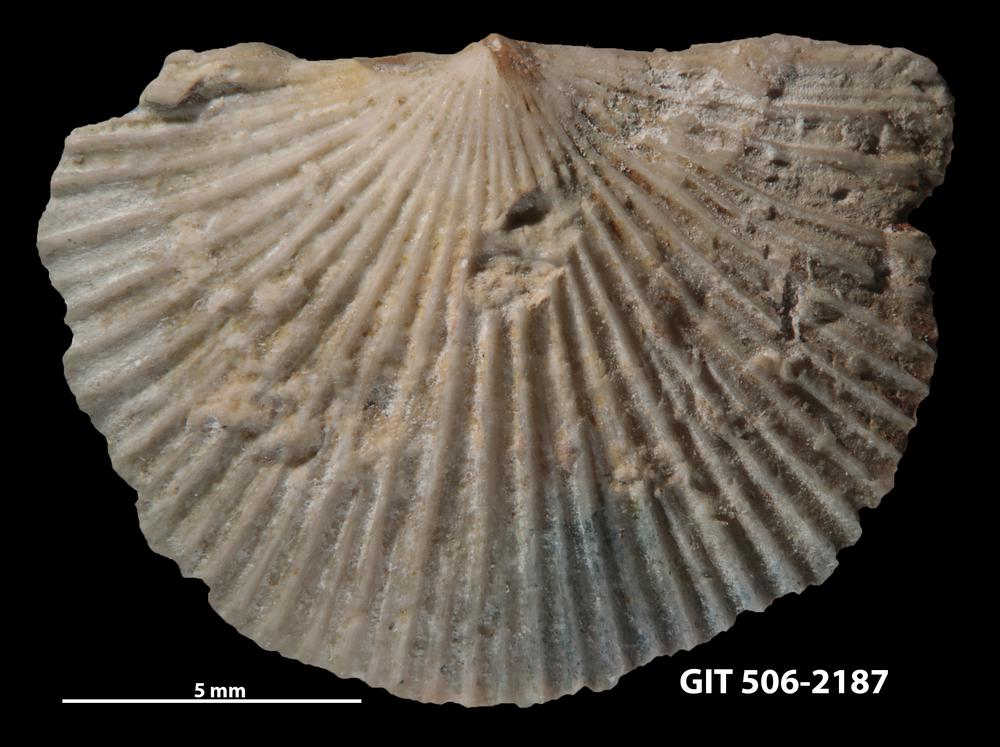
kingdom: Animalia
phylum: Brachiopoda
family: Chilidiopsidae
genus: Fardenia
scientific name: Fardenia Orthis applanata
